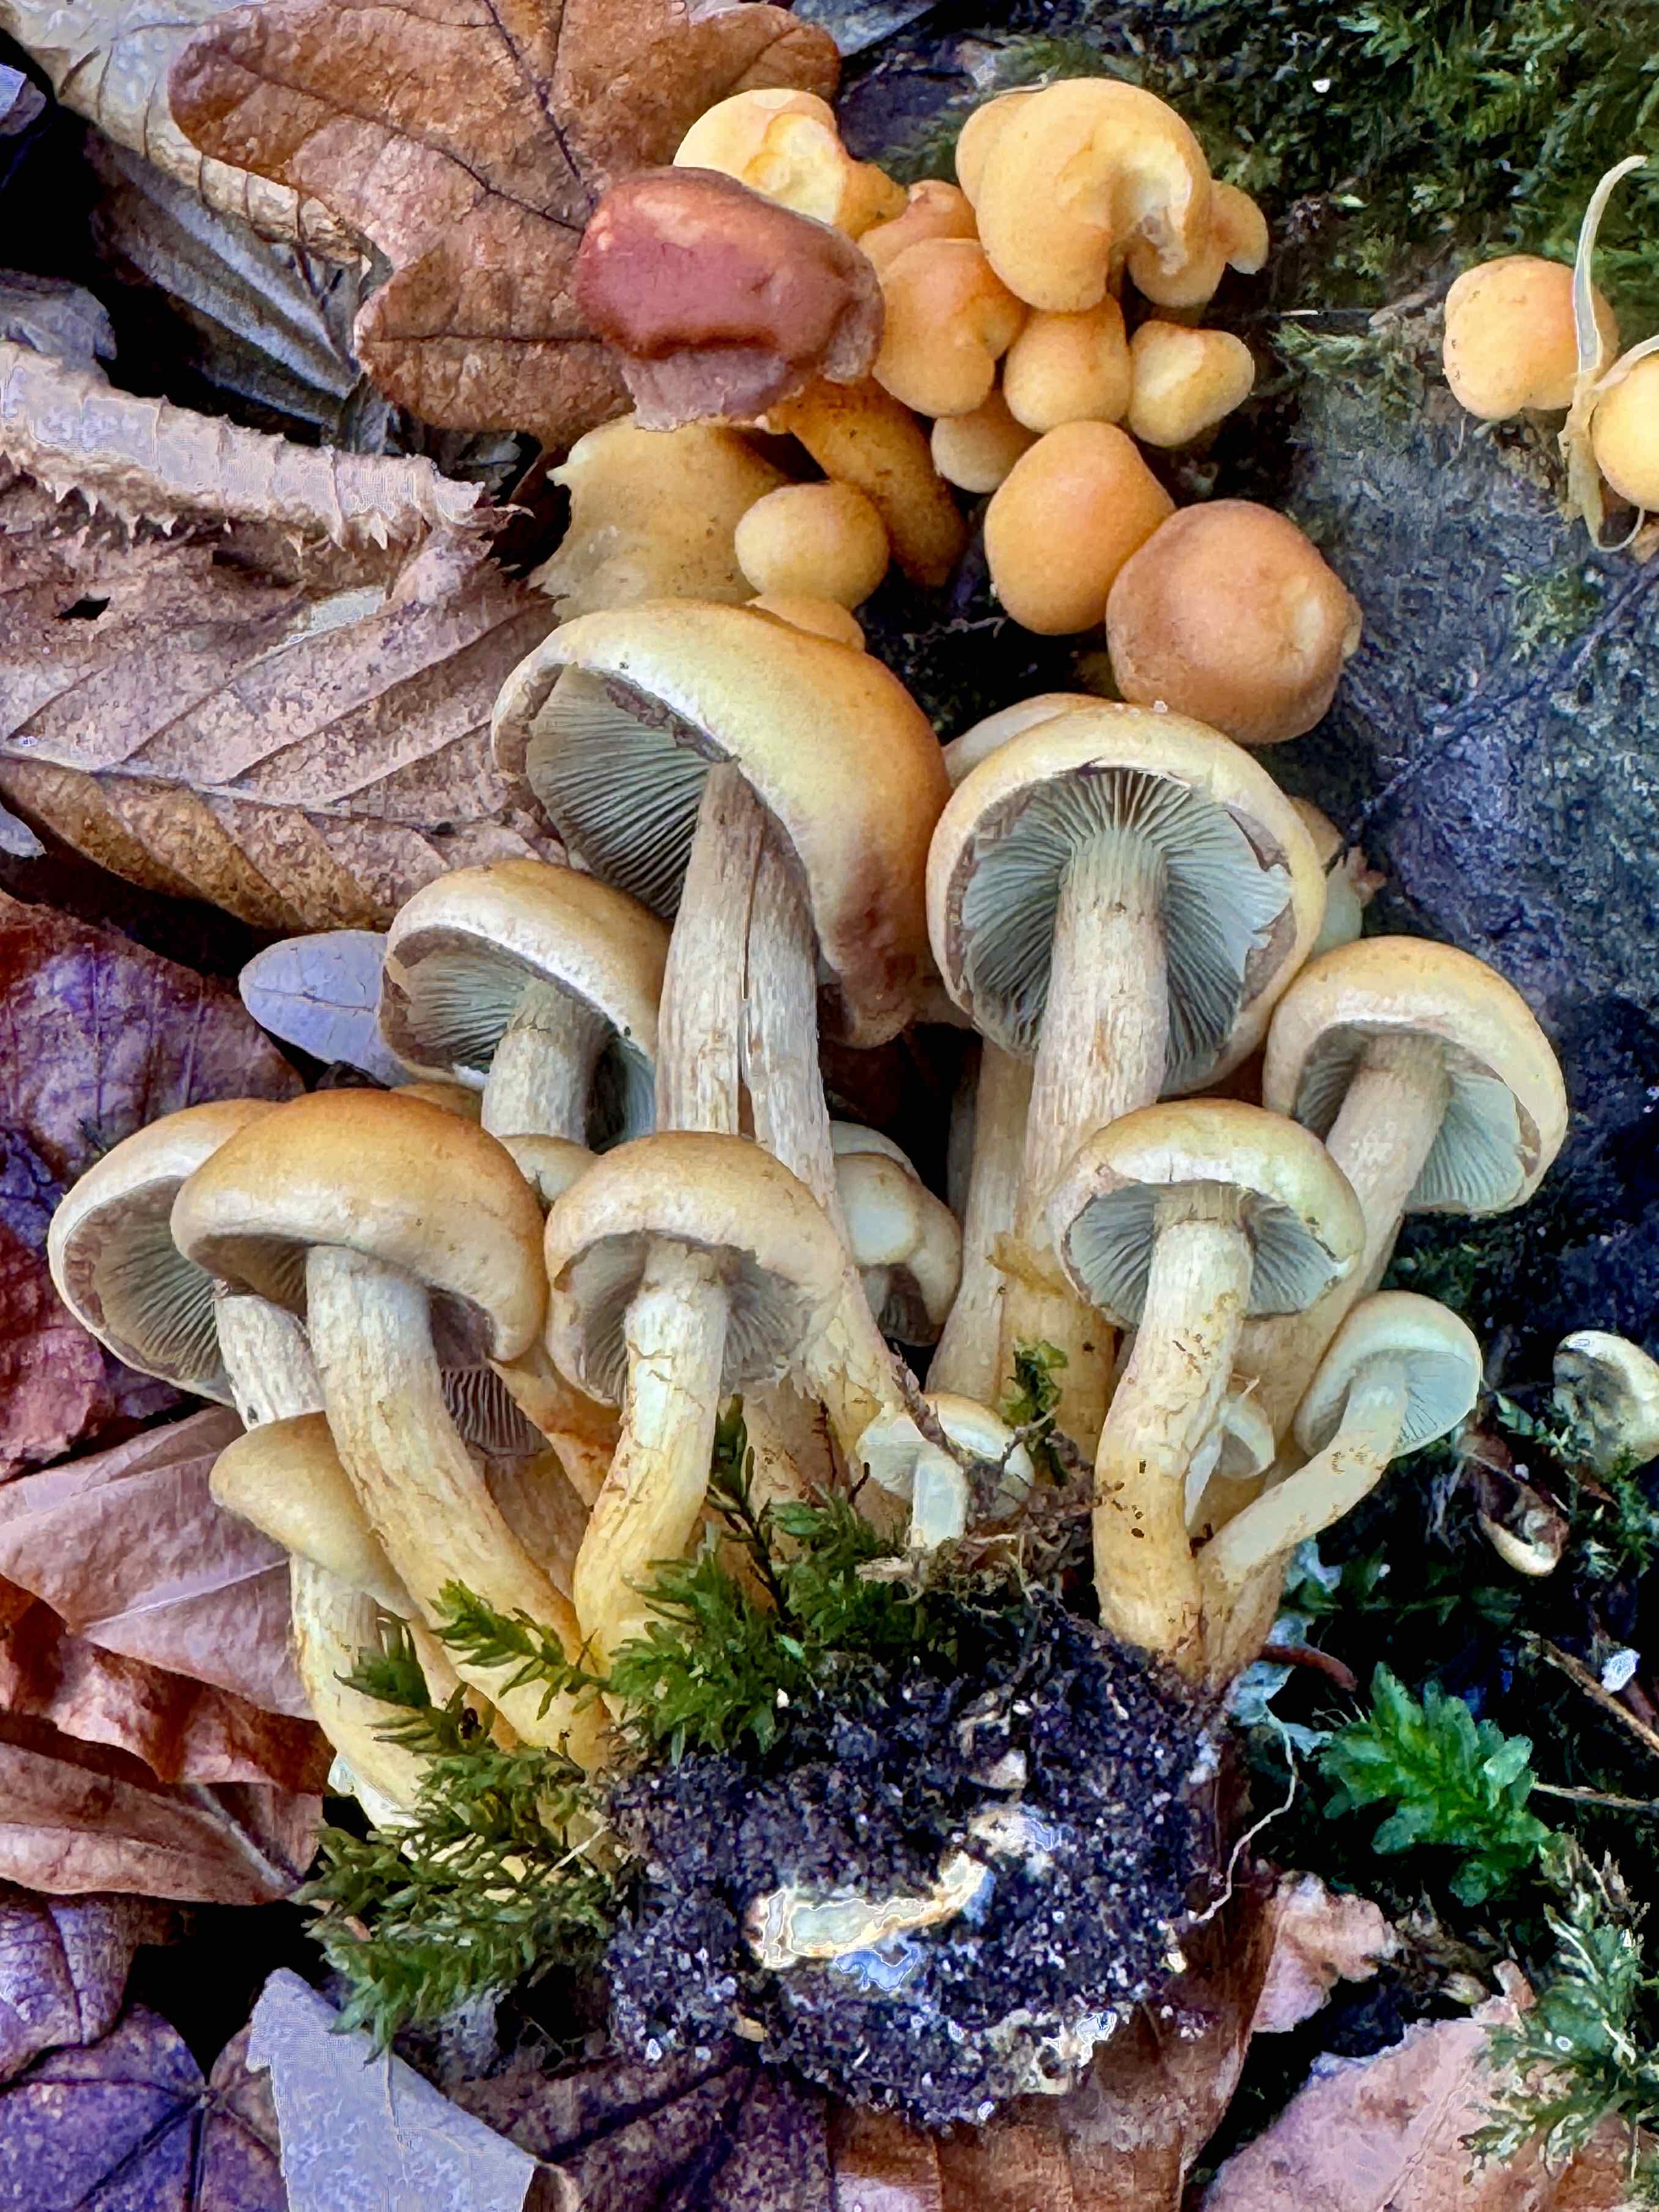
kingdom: Fungi
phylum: Basidiomycota
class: Agaricomycetes
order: Agaricales
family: Strophariaceae
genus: Hypholoma
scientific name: Hypholoma fasciculare
